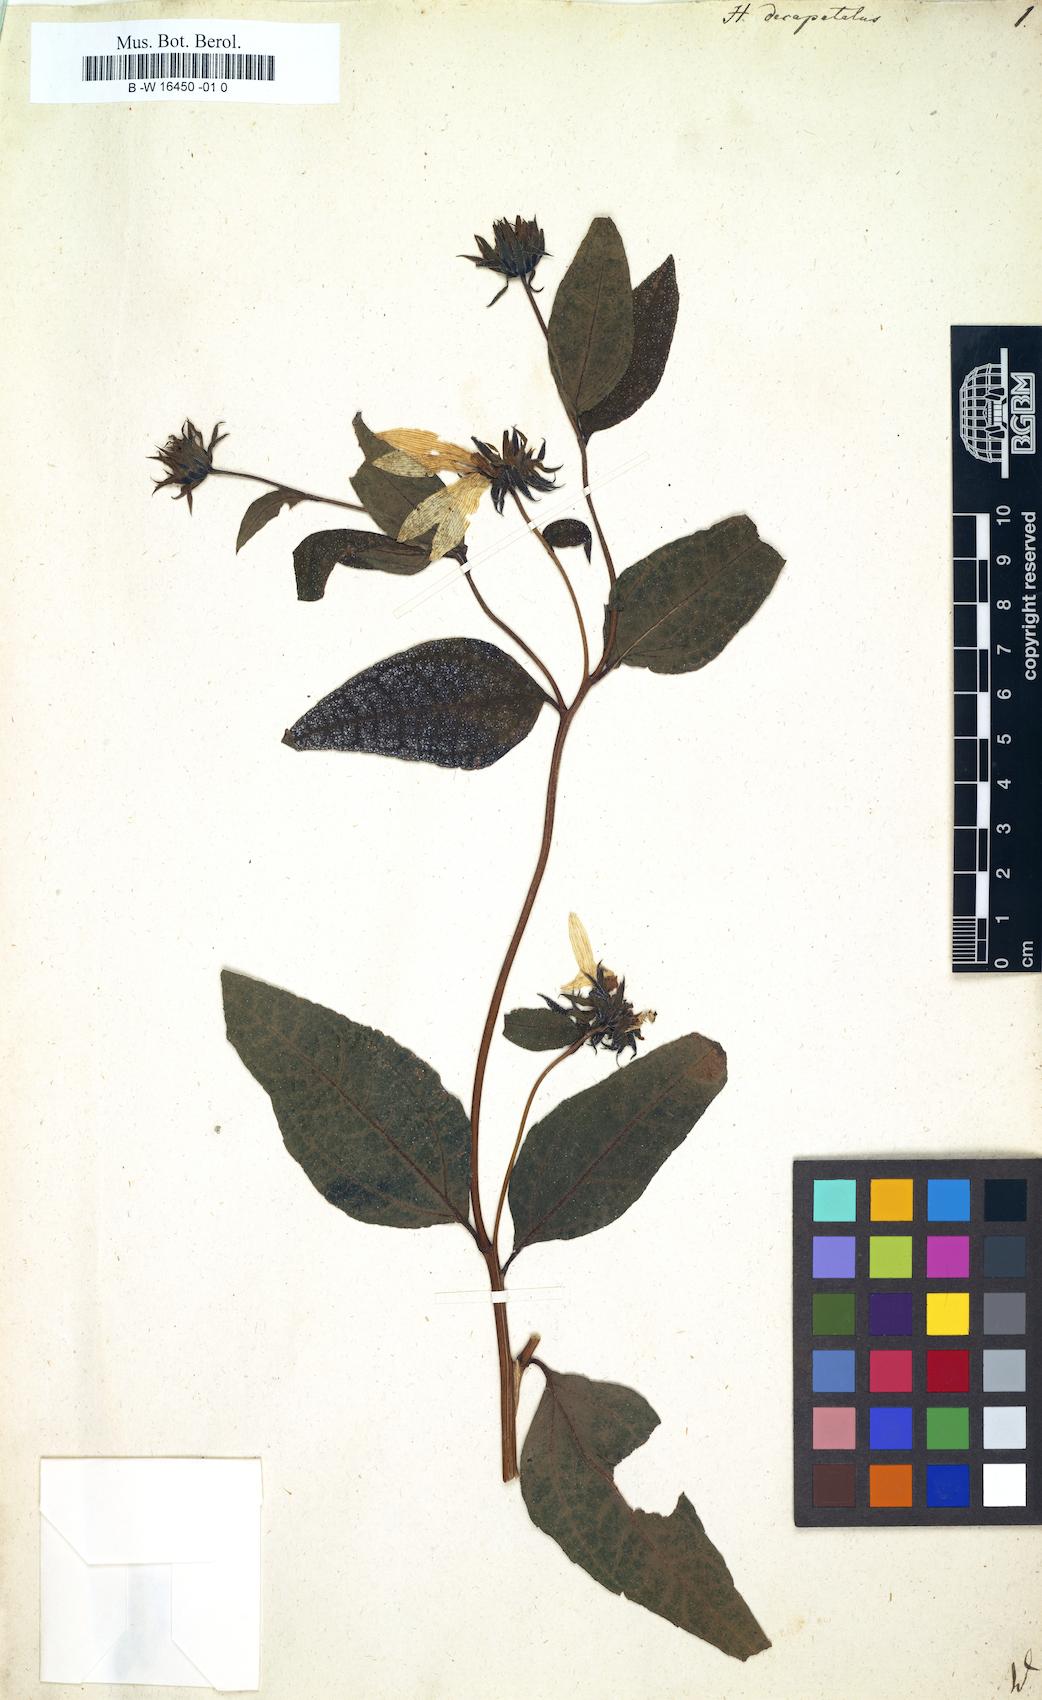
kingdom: Plantae
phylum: Tracheophyta
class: Magnoliopsida
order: Asterales
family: Asteraceae
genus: Helianthus
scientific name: Helianthus strumosus
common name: Pale-leaved sunflower
